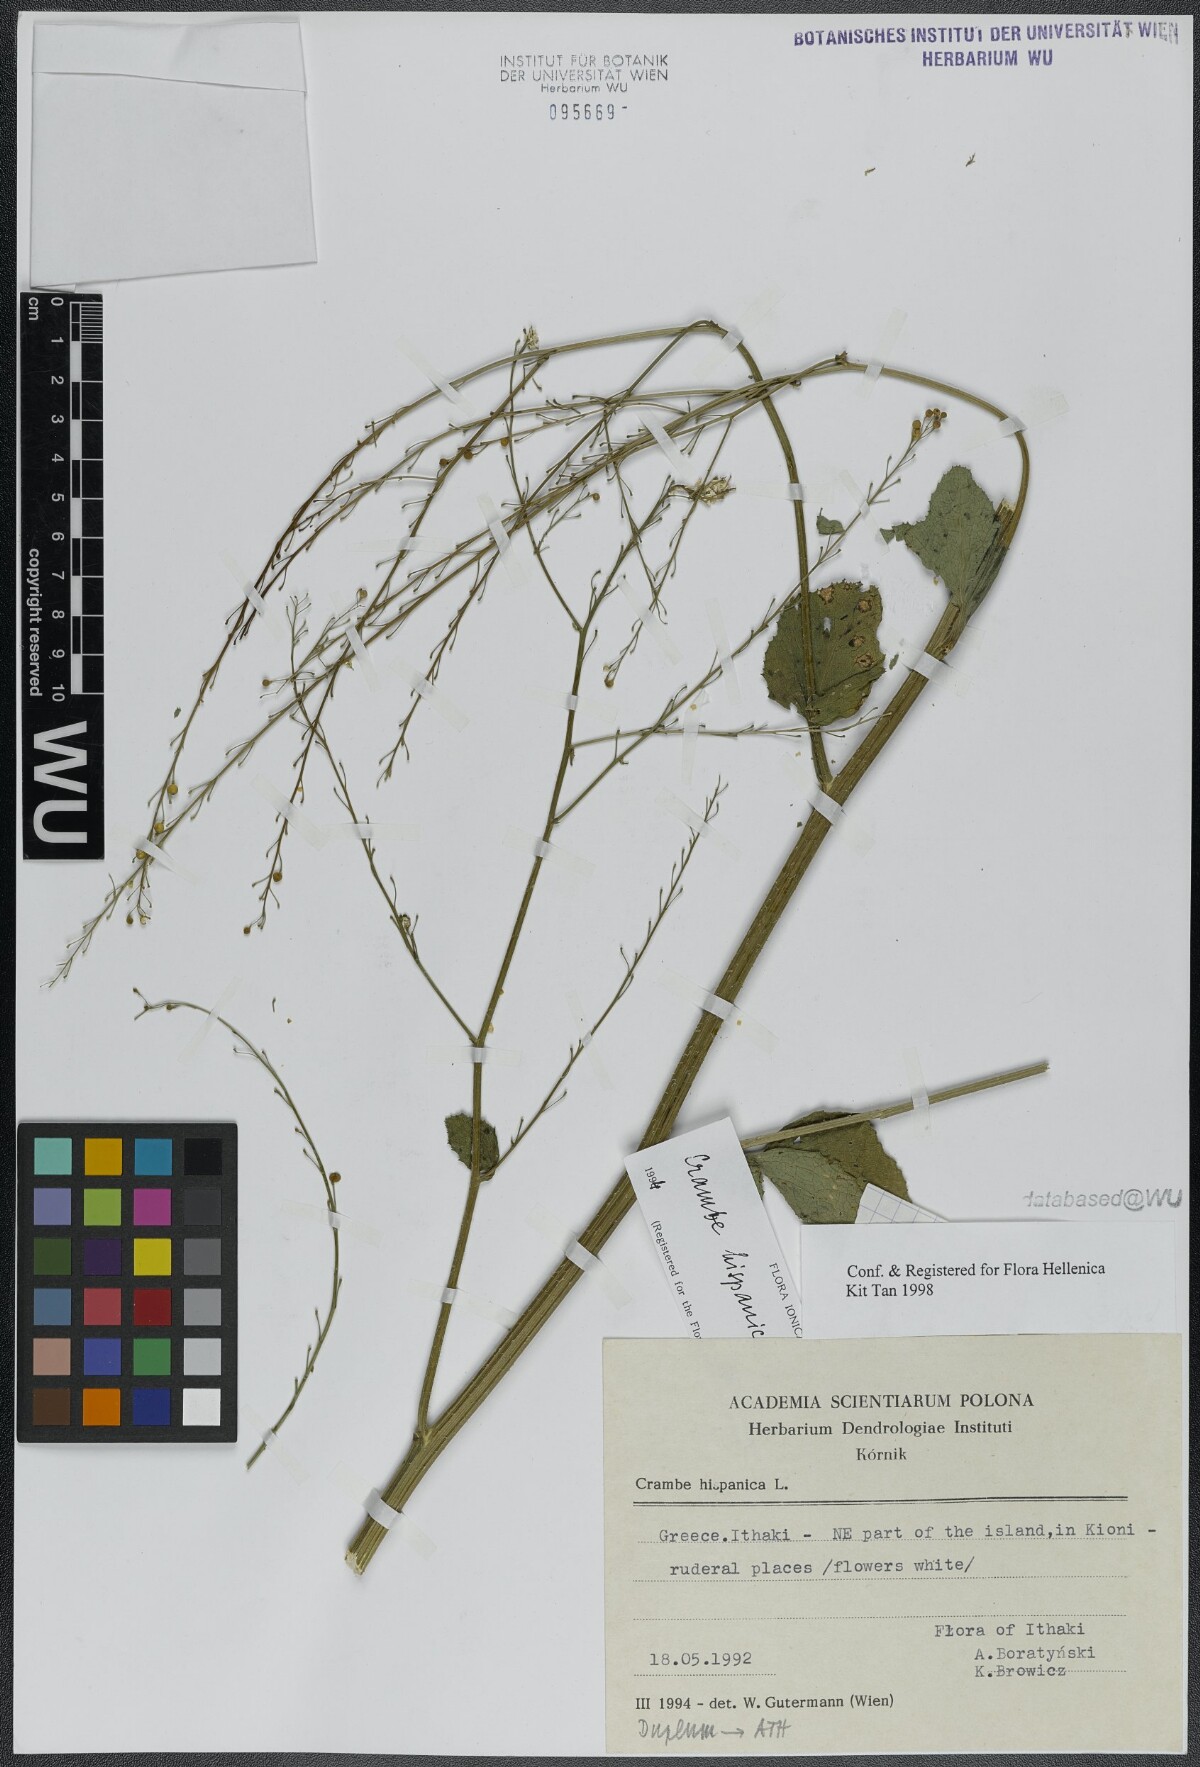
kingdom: Plantae
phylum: Tracheophyta
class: Magnoliopsida
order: Brassicales
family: Brassicaceae
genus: Crambe
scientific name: Crambe hispanica
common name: Abyssinian mustard
